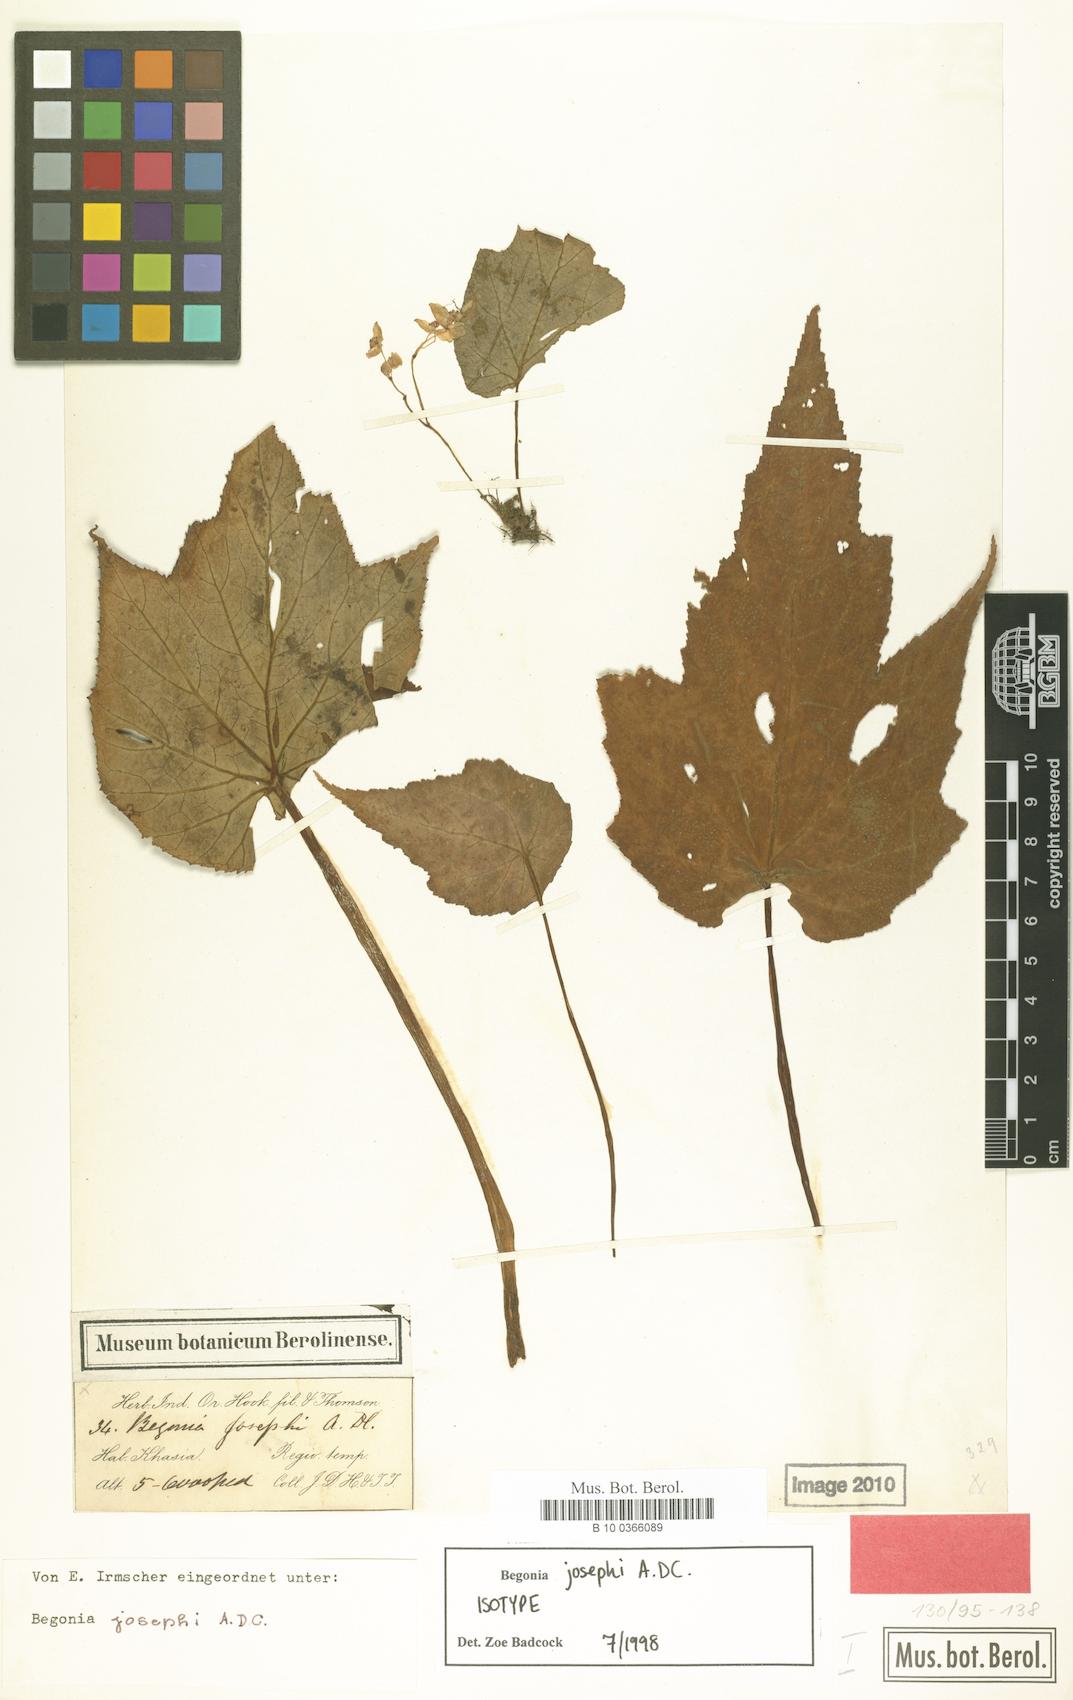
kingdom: Plantae
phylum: Tracheophyta
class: Magnoliopsida
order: Cucurbitales
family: Begoniaceae
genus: Begonia
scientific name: Begonia josephi
